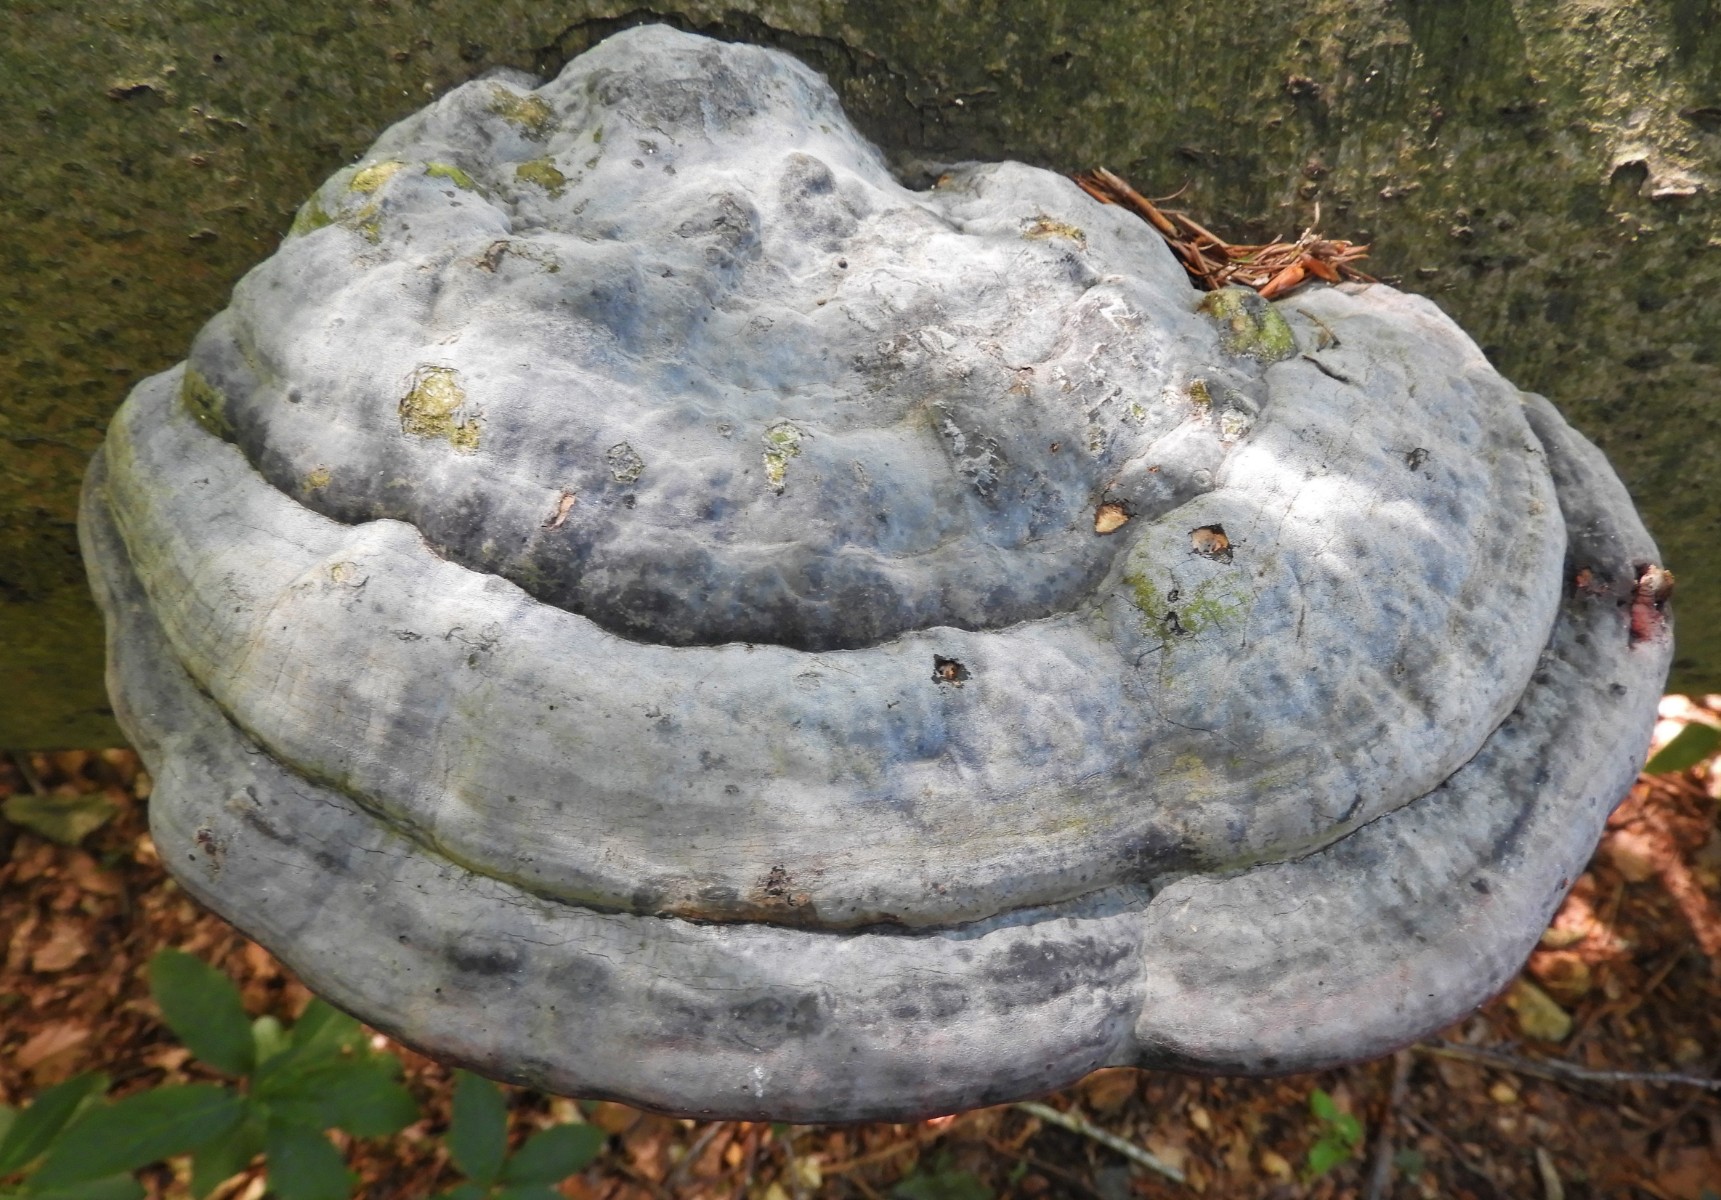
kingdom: Fungi
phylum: Basidiomycota
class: Agaricomycetes
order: Polyporales
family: Polyporaceae
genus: Fomes
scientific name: Fomes fomentarius
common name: tøndersvamp
